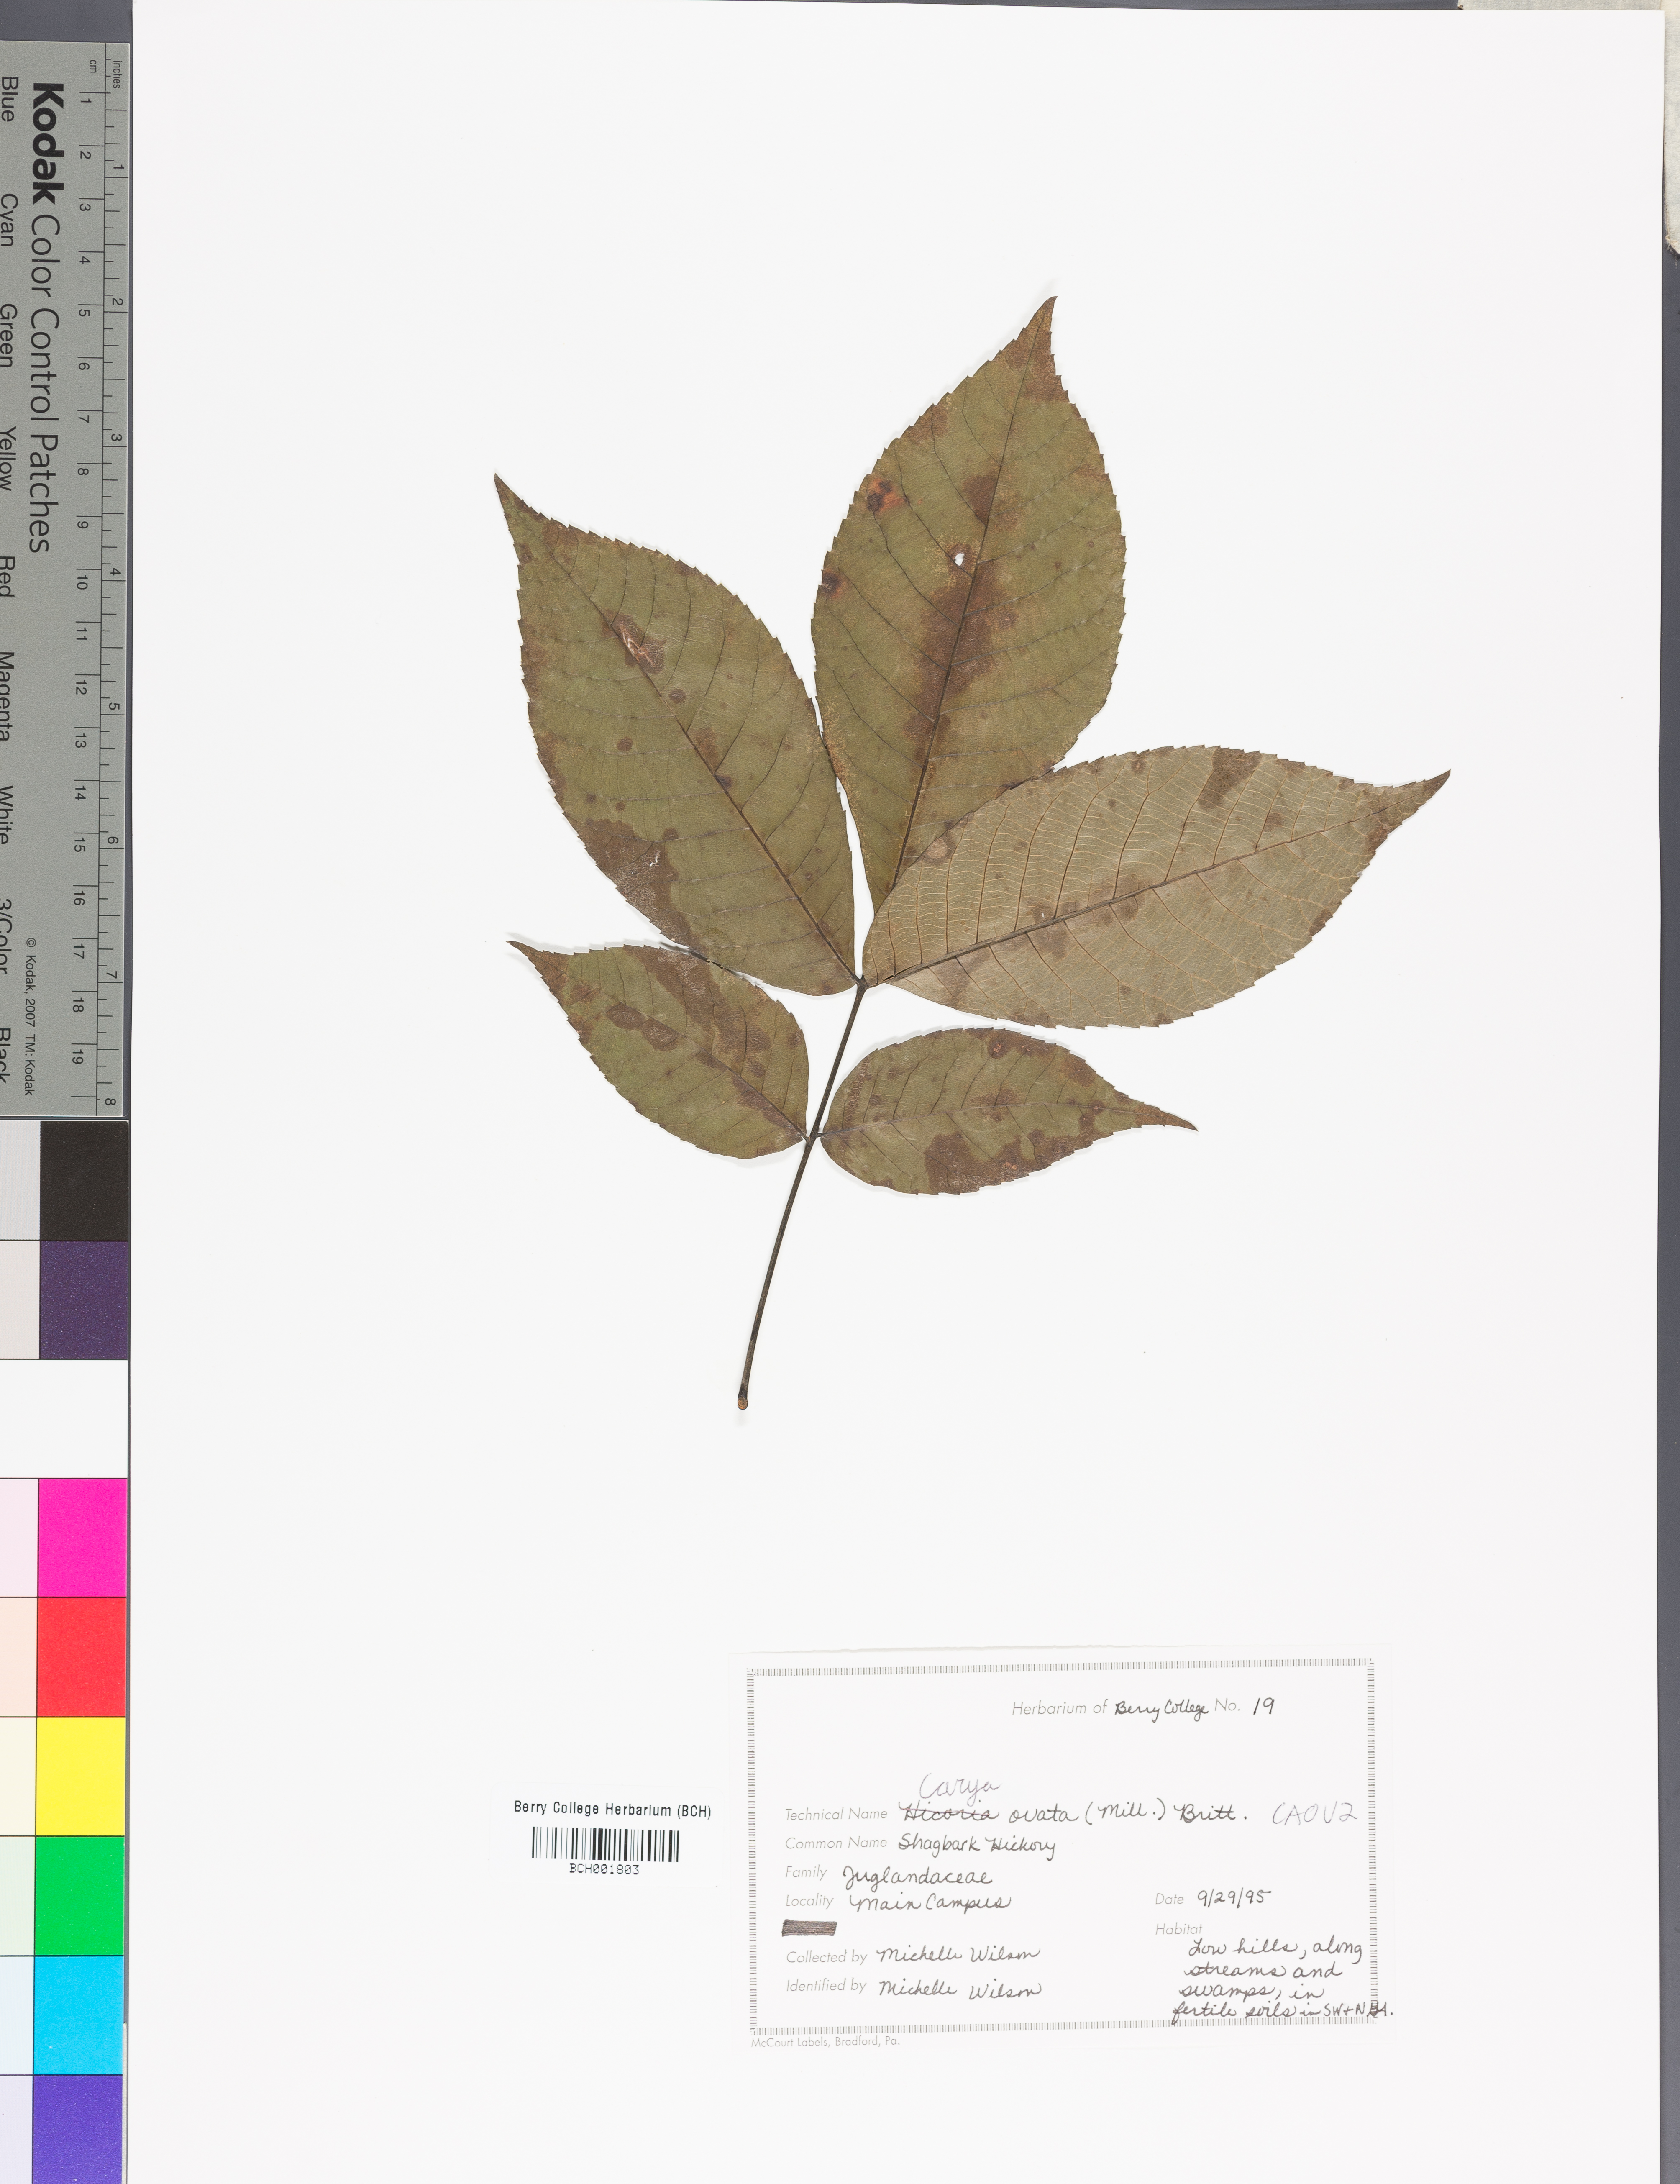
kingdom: Plantae
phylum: Tracheophyta
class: Magnoliopsida
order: Fagales
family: Juglandaceae
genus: Carya
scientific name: Carya ovata
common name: Shagbark hickory
